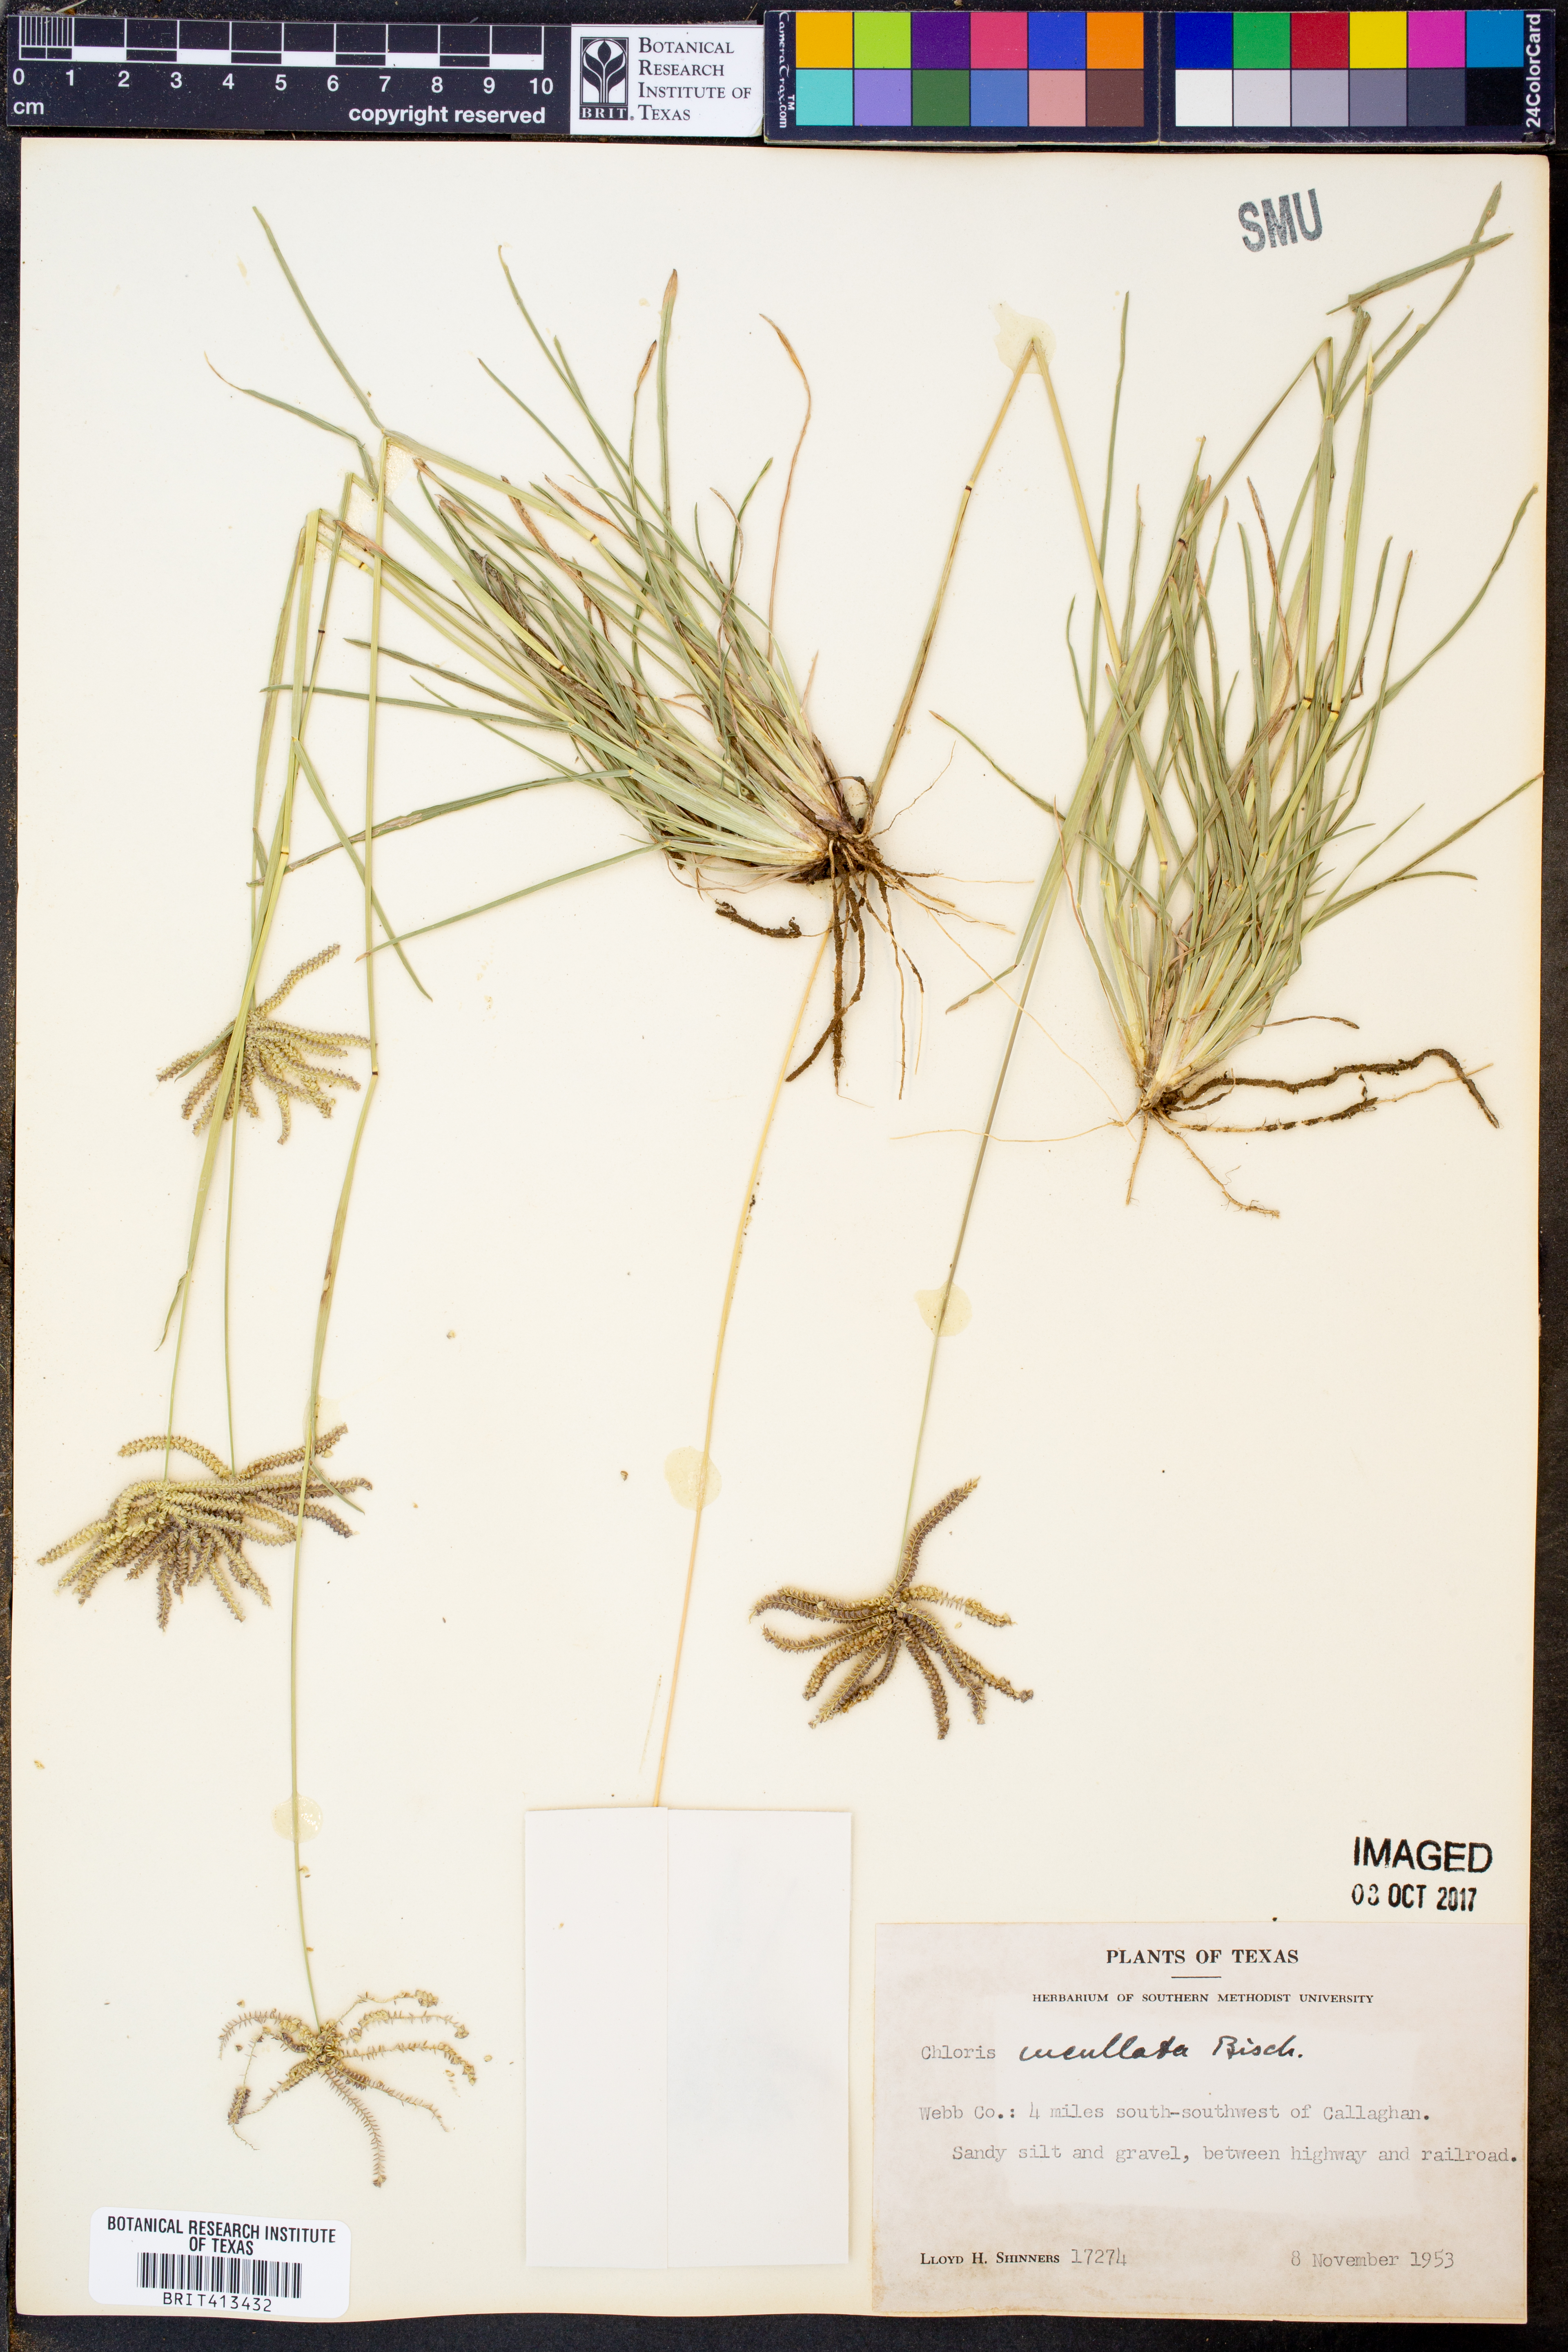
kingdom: Plantae
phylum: Tracheophyta
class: Liliopsida
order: Poales
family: Poaceae
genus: Chloris
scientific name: Chloris cucullata
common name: Hooded windmill grass
